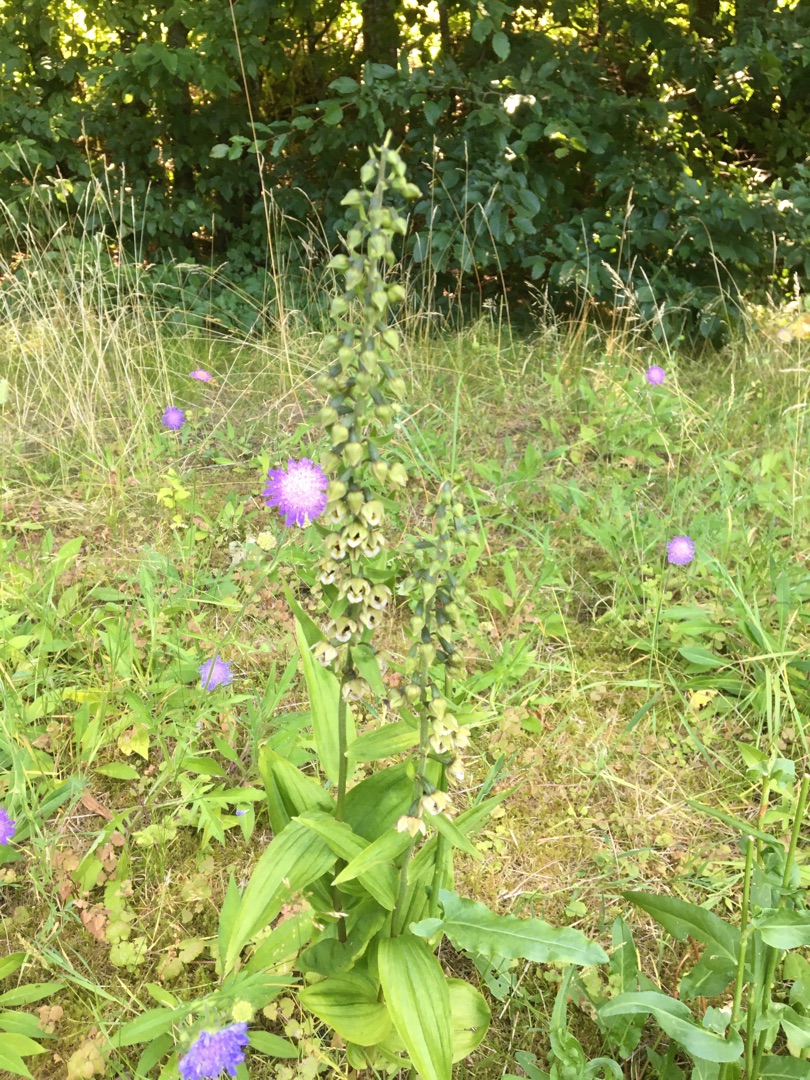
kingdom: Plantae
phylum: Tracheophyta
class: Liliopsida
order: Asparagales
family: Orchidaceae
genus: Epipactis
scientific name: Epipactis helleborine
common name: Skov-hullæbe
